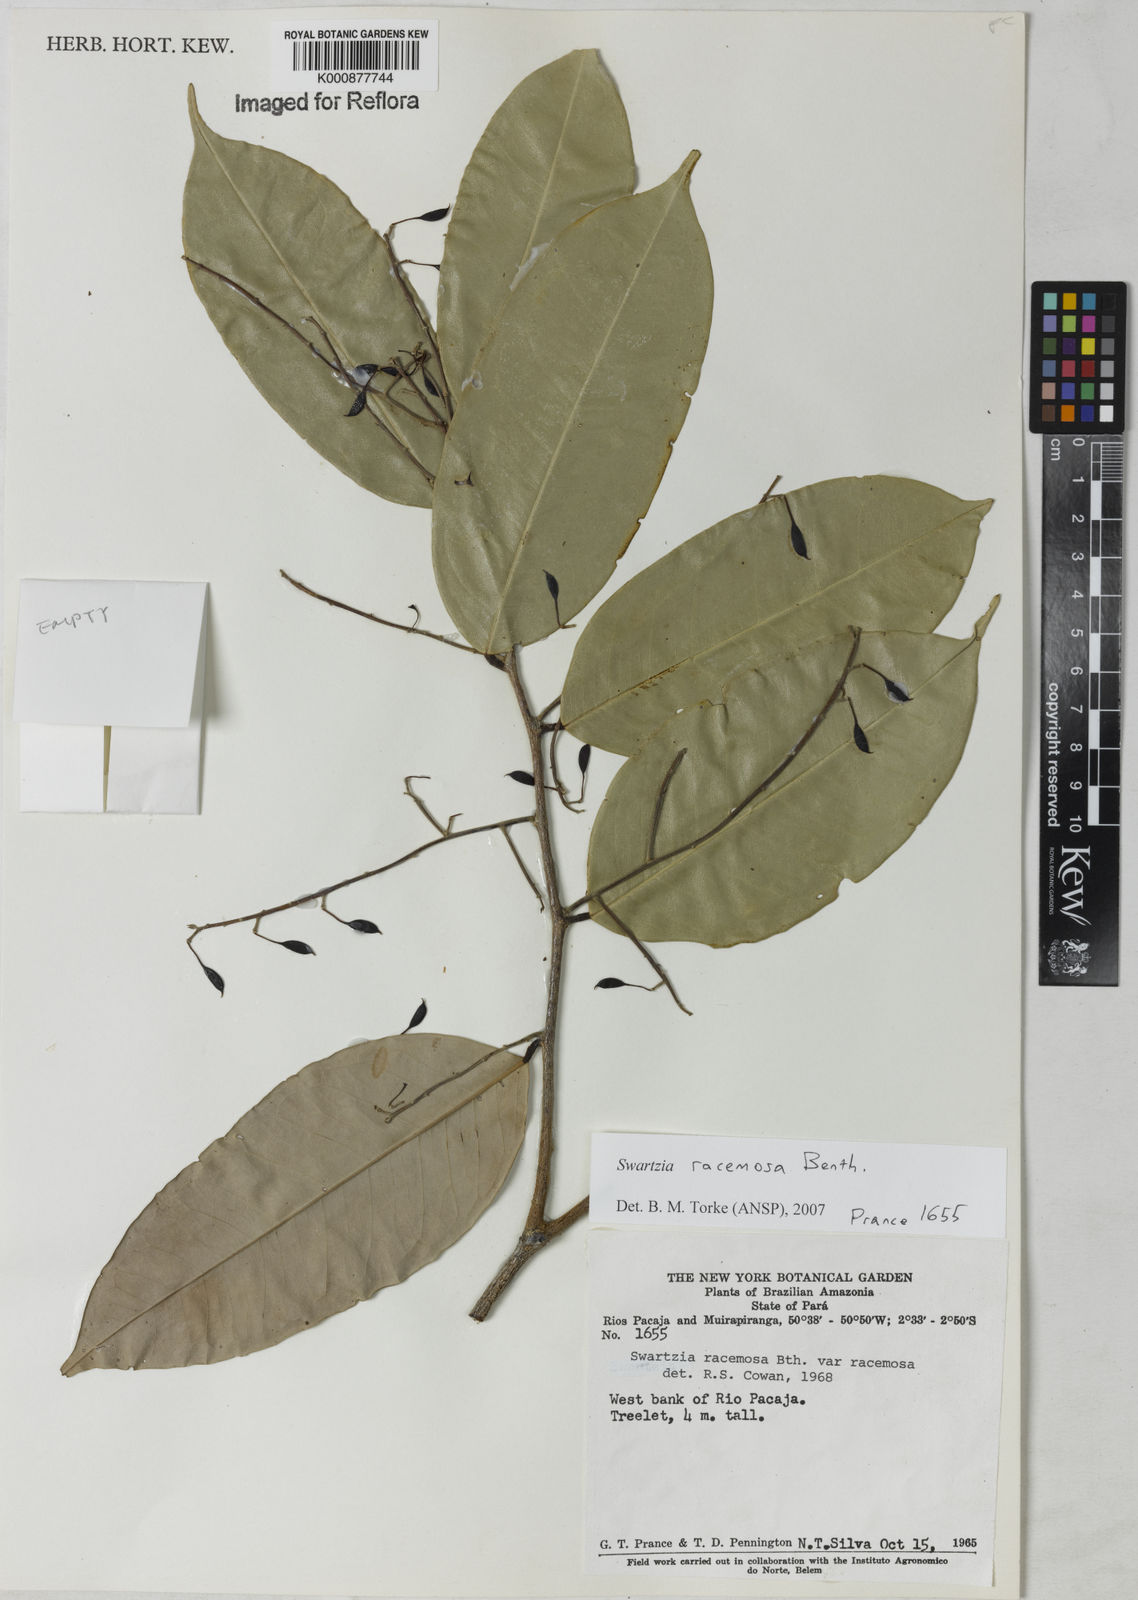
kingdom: Plantae
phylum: Tracheophyta
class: Magnoliopsida
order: Fabales
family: Fabaceae
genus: Swartzia
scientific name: Swartzia racemosa
